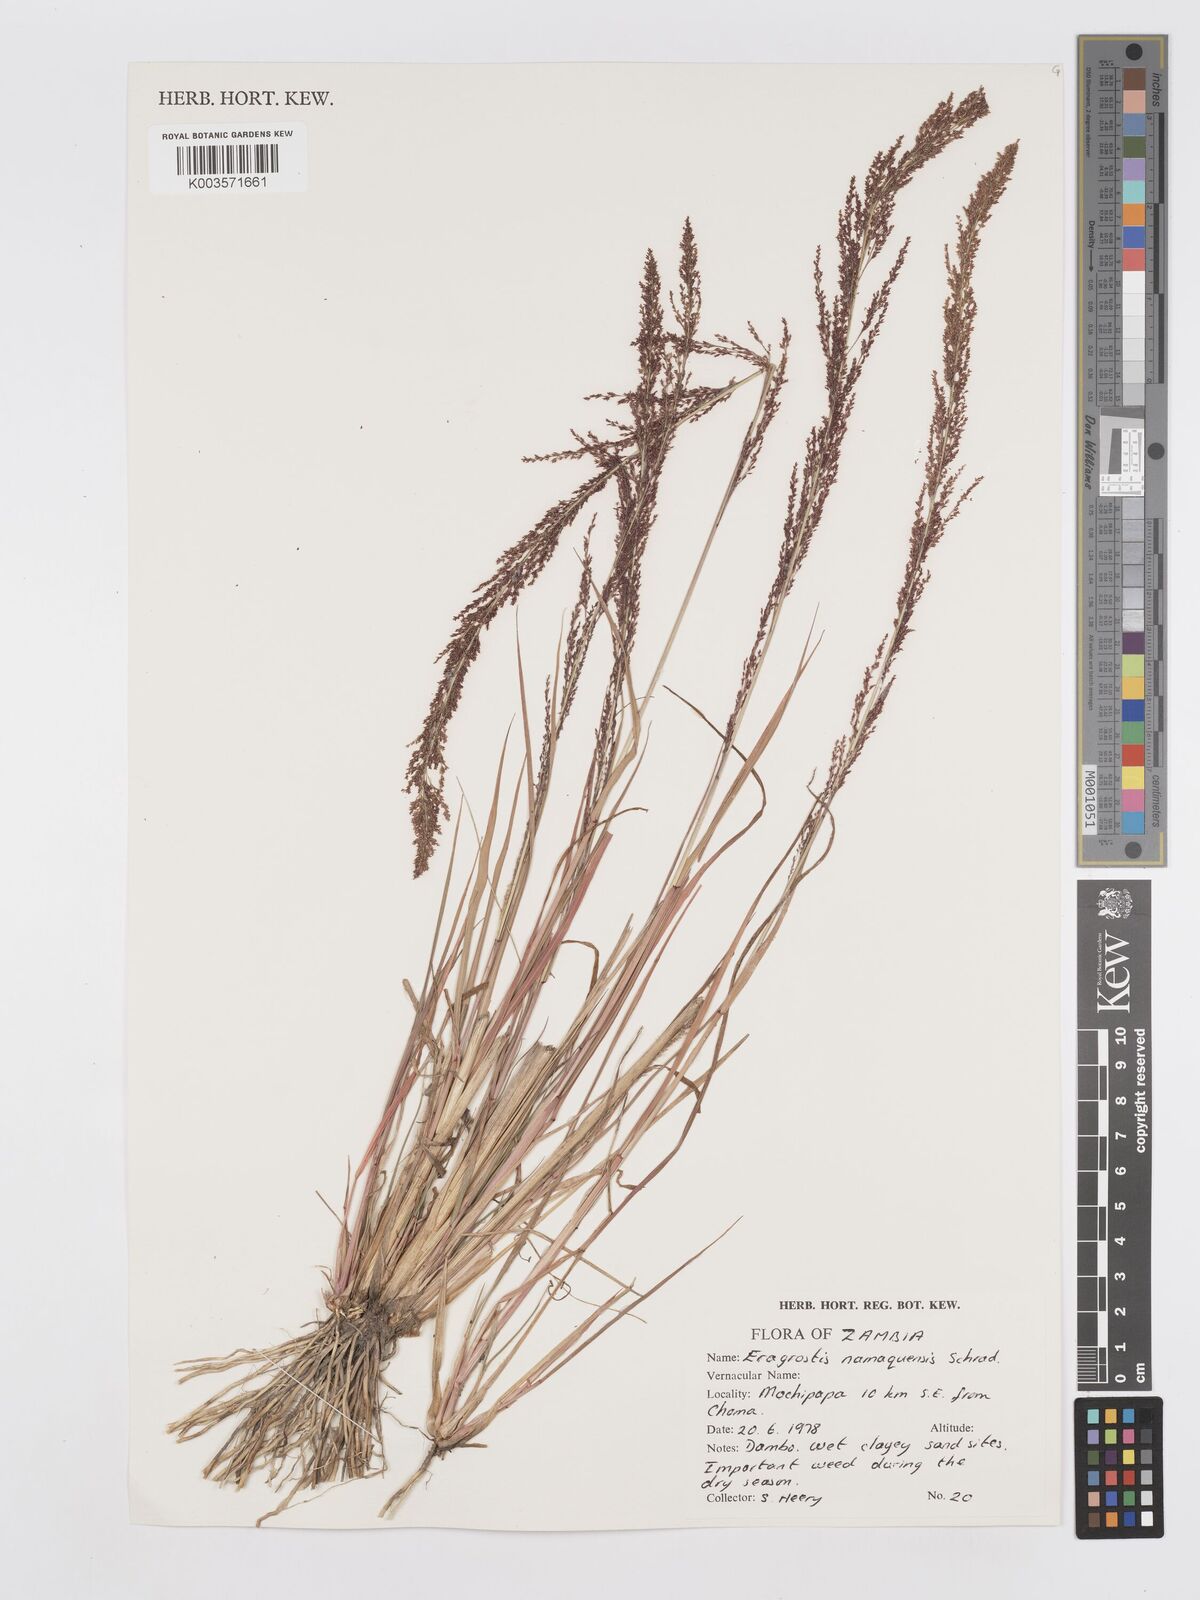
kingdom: Plantae
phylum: Tracheophyta
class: Liliopsida
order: Poales
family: Poaceae
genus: Eragrostis
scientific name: Eragrostis japonica
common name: Pond lovegrass
